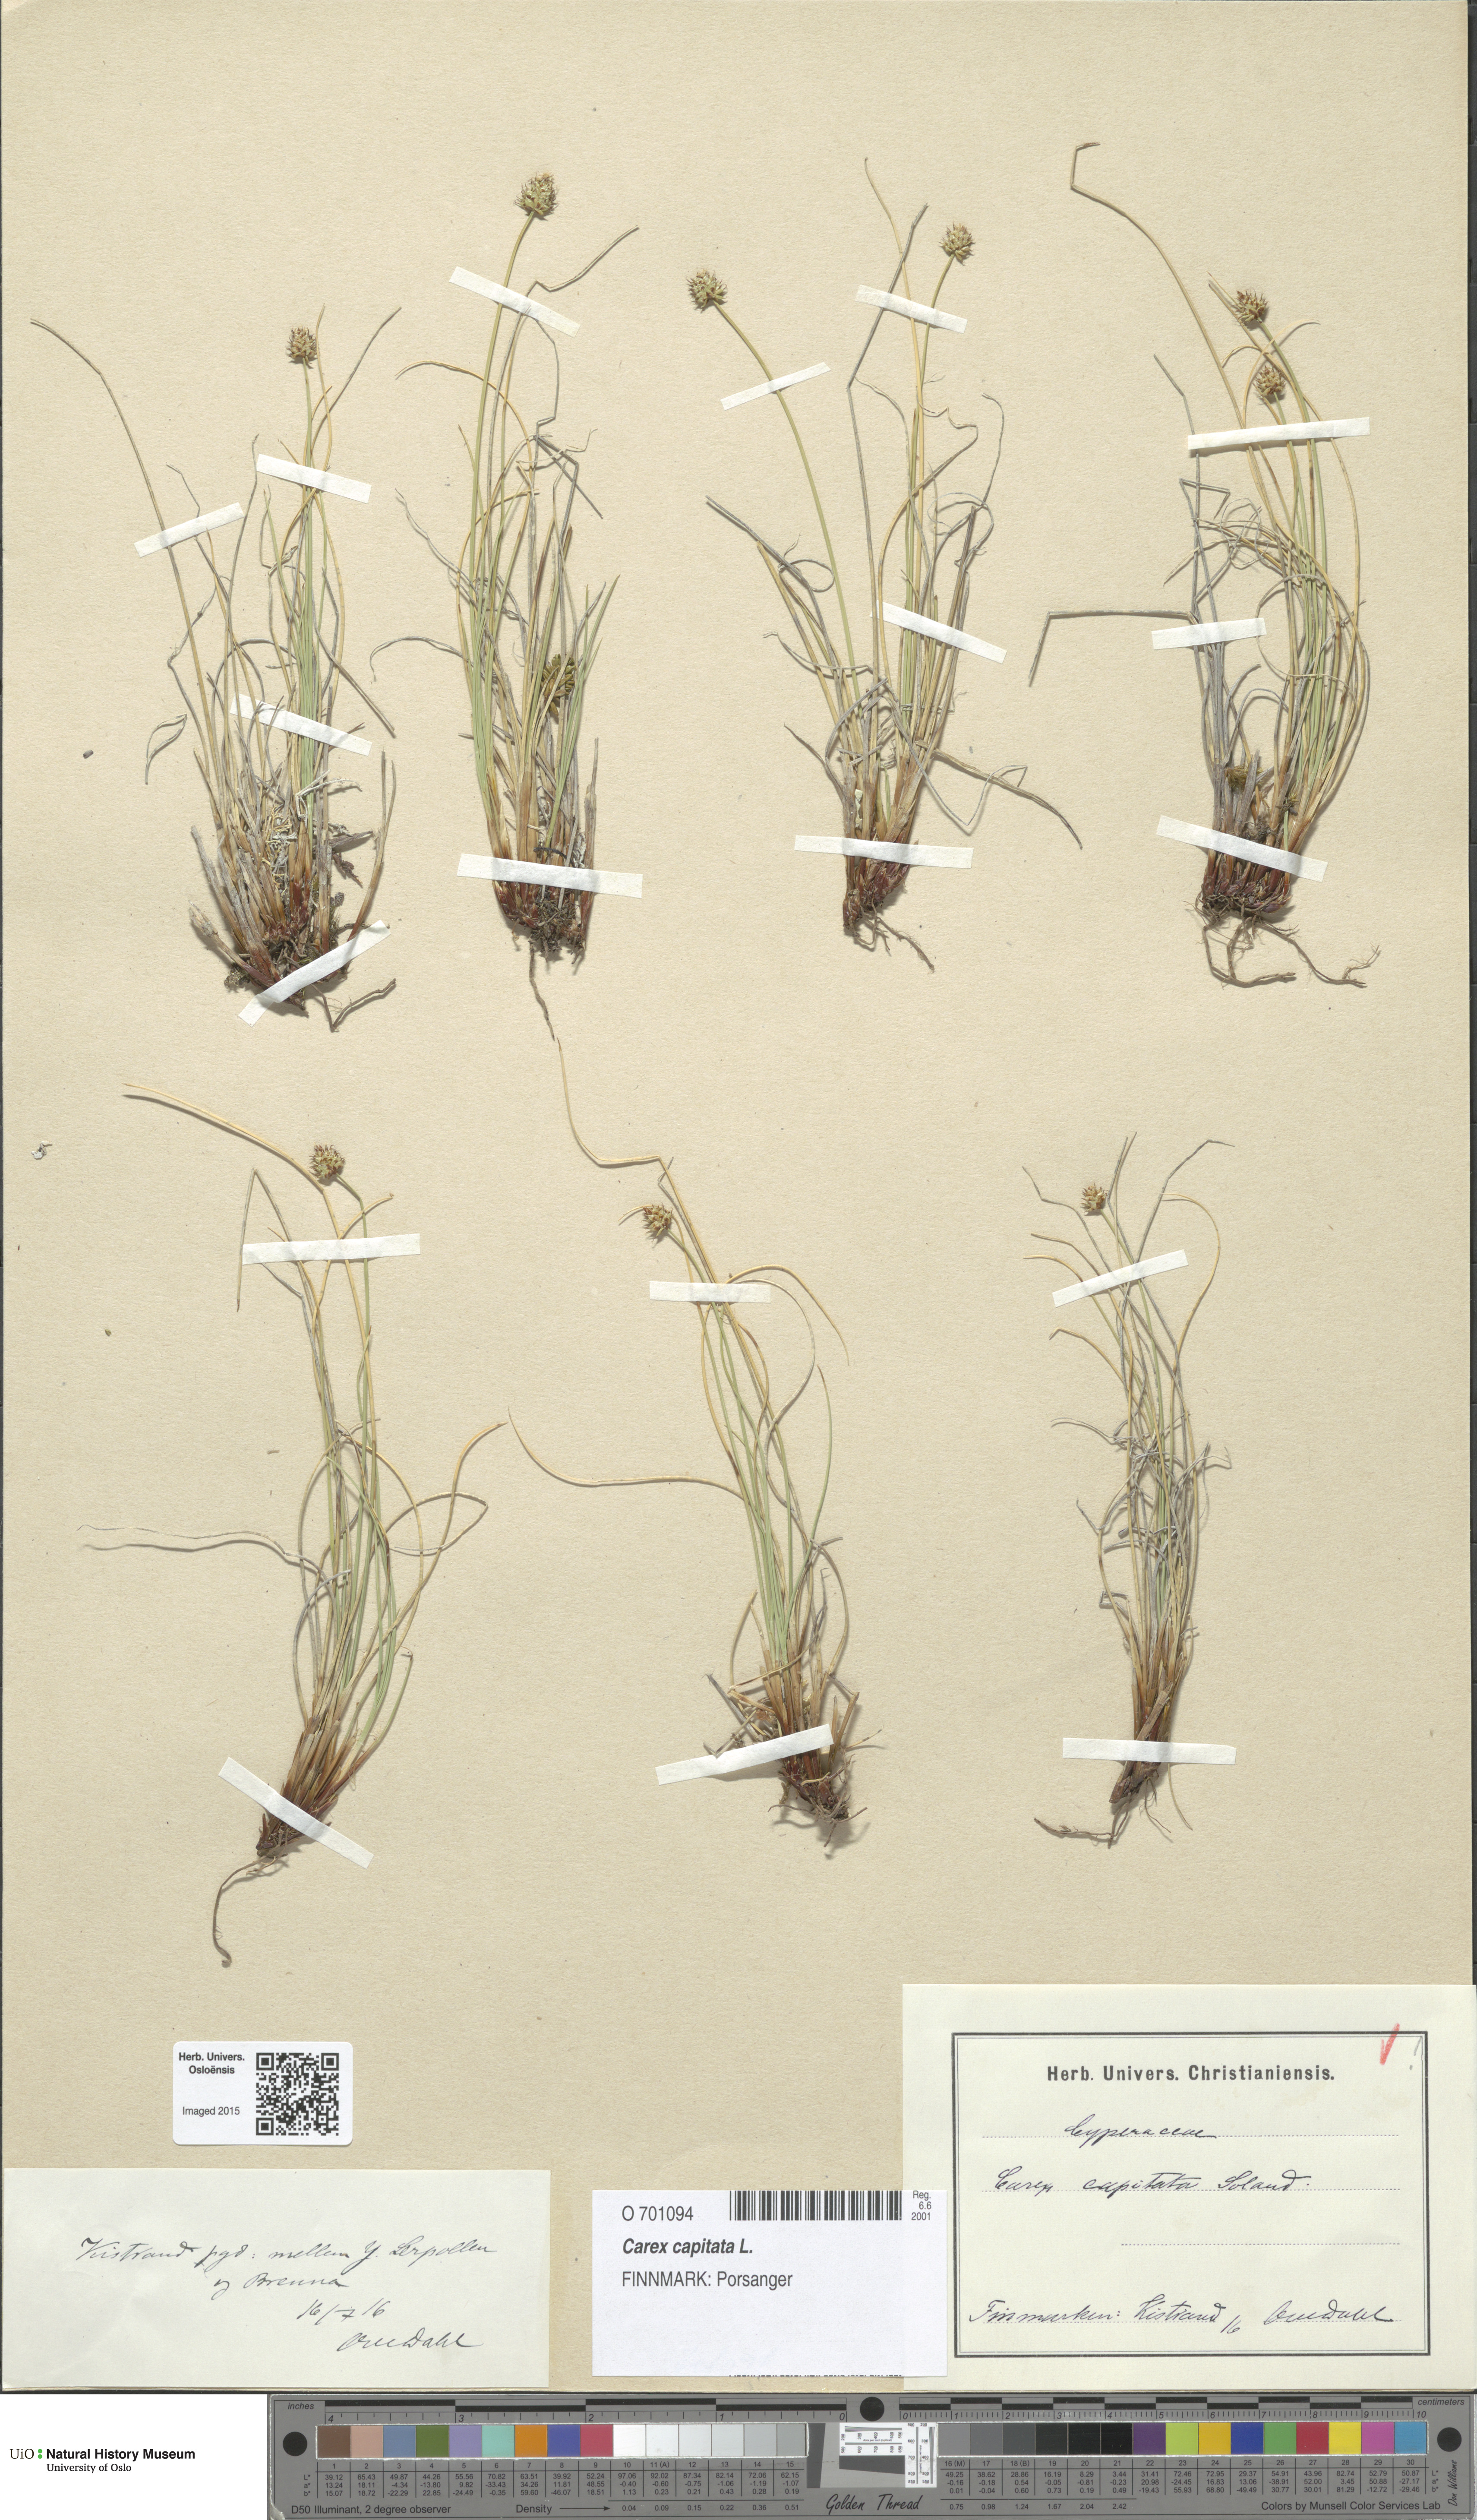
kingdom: Plantae
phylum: Tracheophyta
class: Liliopsida
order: Poales
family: Cyperaceae
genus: Carex
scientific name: Carex capitata
